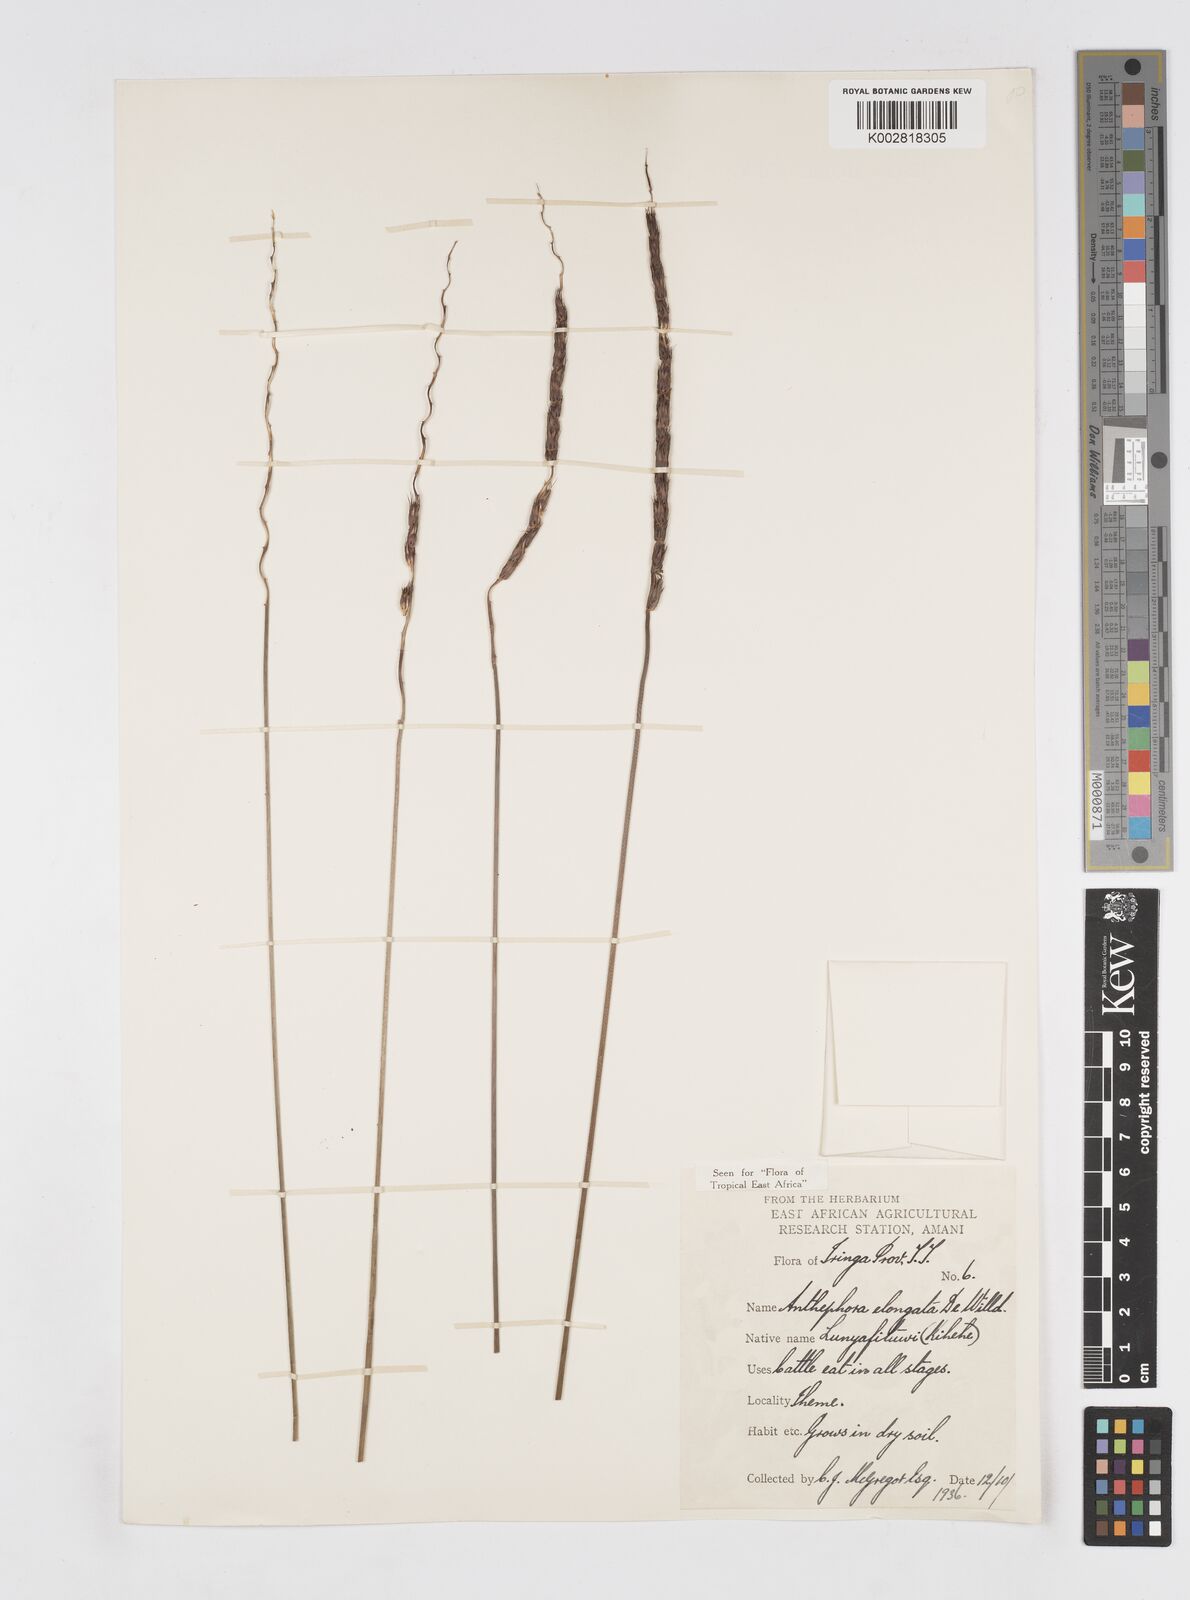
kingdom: Plantae
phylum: Tracheophyta
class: Liliopsida
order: Poales
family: Poaceae
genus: Anthephora
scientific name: Anthephora elongata
